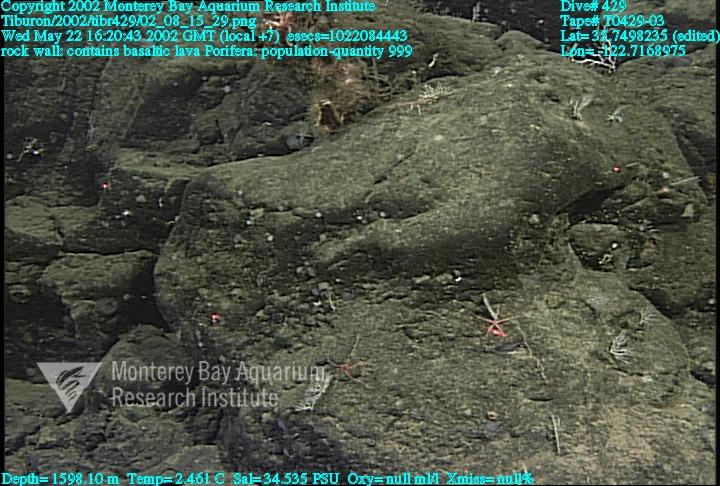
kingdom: Animalia
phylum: Porifera
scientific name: Porifera
